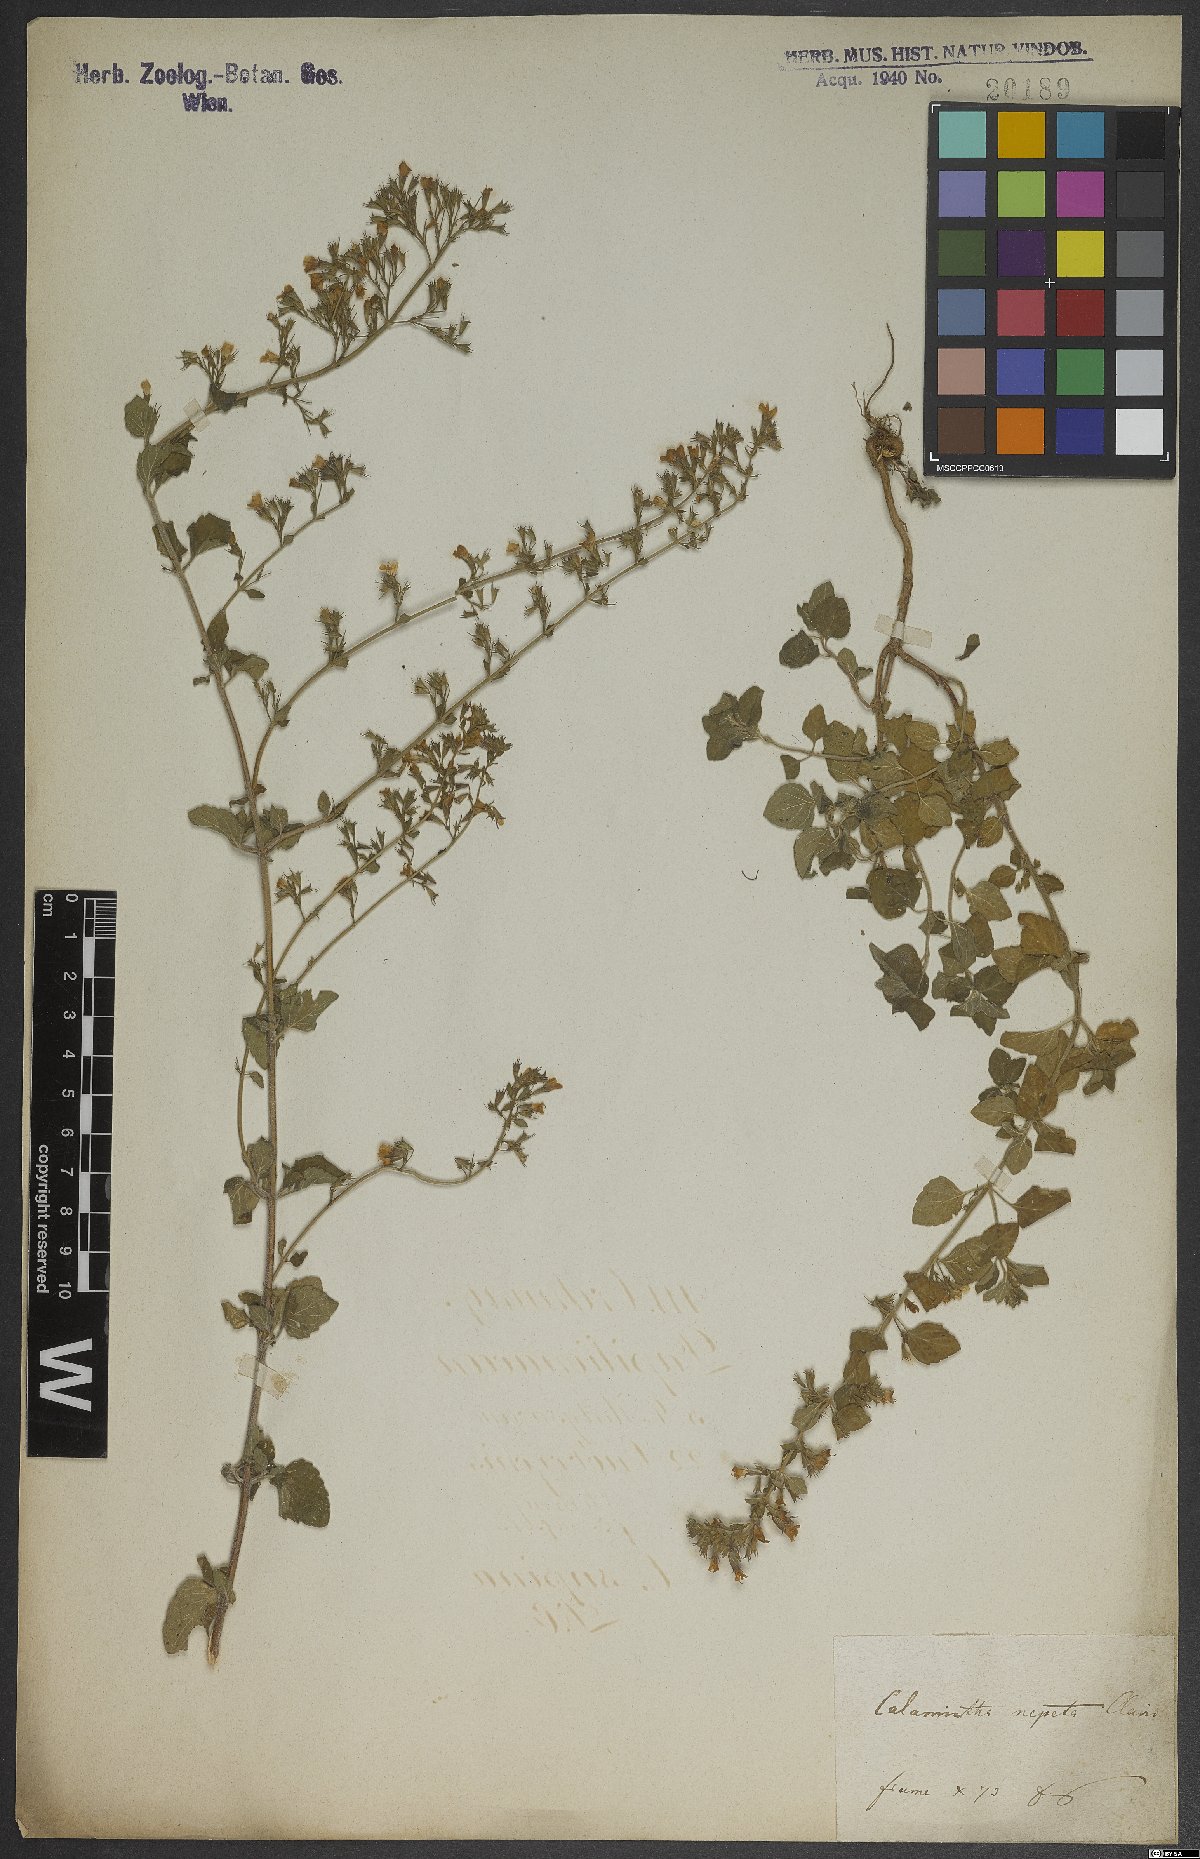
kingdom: Plantae
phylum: Tracheophyta
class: Magnoliopsida
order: Lamiales
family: Lamiaceae
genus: Clinopodium
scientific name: Clinopodium nepeta
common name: Lesser calamint
